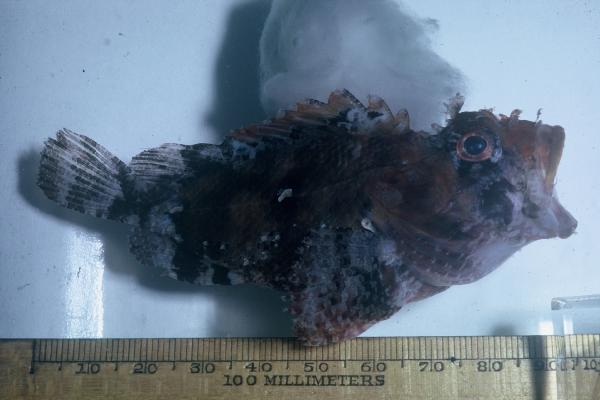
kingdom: Animalia
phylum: Chordata
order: Scorpaeniformes
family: Scorpaenidae
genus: Parascorpaena
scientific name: Parascorpaena mossambica
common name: Mozambique scorpionfish
